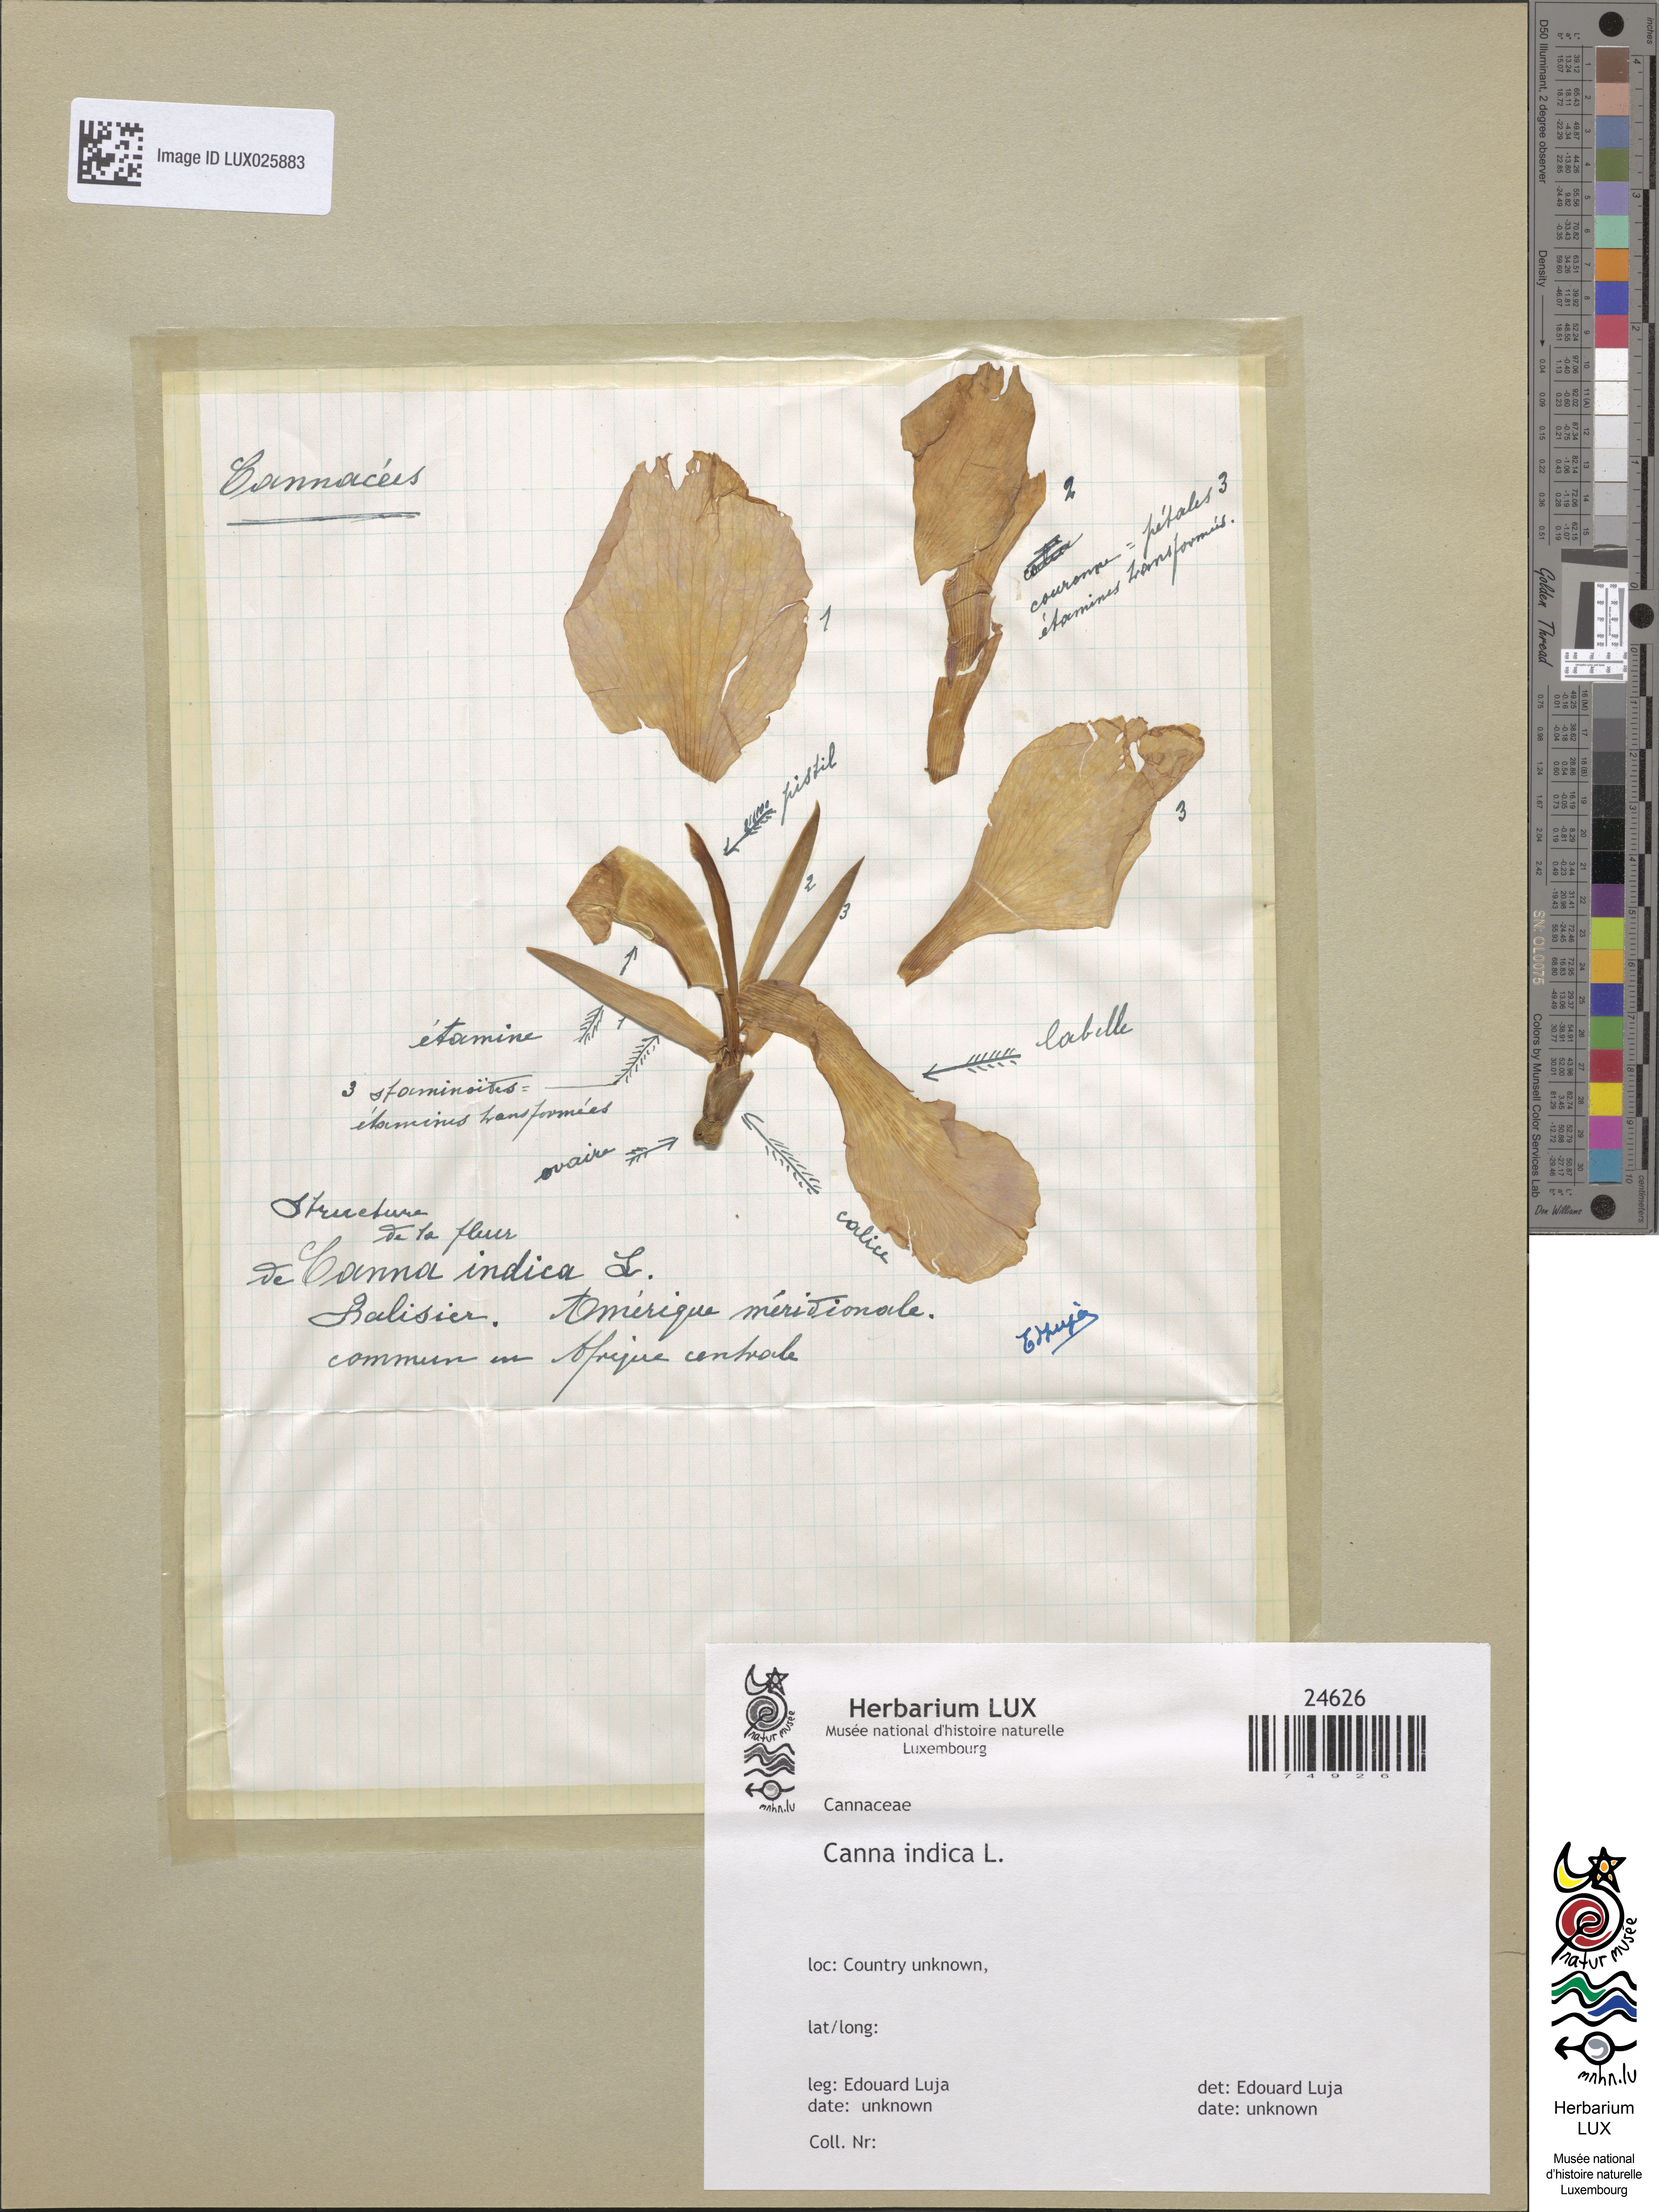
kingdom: Plantae
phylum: Tracheophyta
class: Liliopsida
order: Zingiberales
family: Cannaceae
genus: Canna
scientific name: Canna indica
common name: Indian shot
